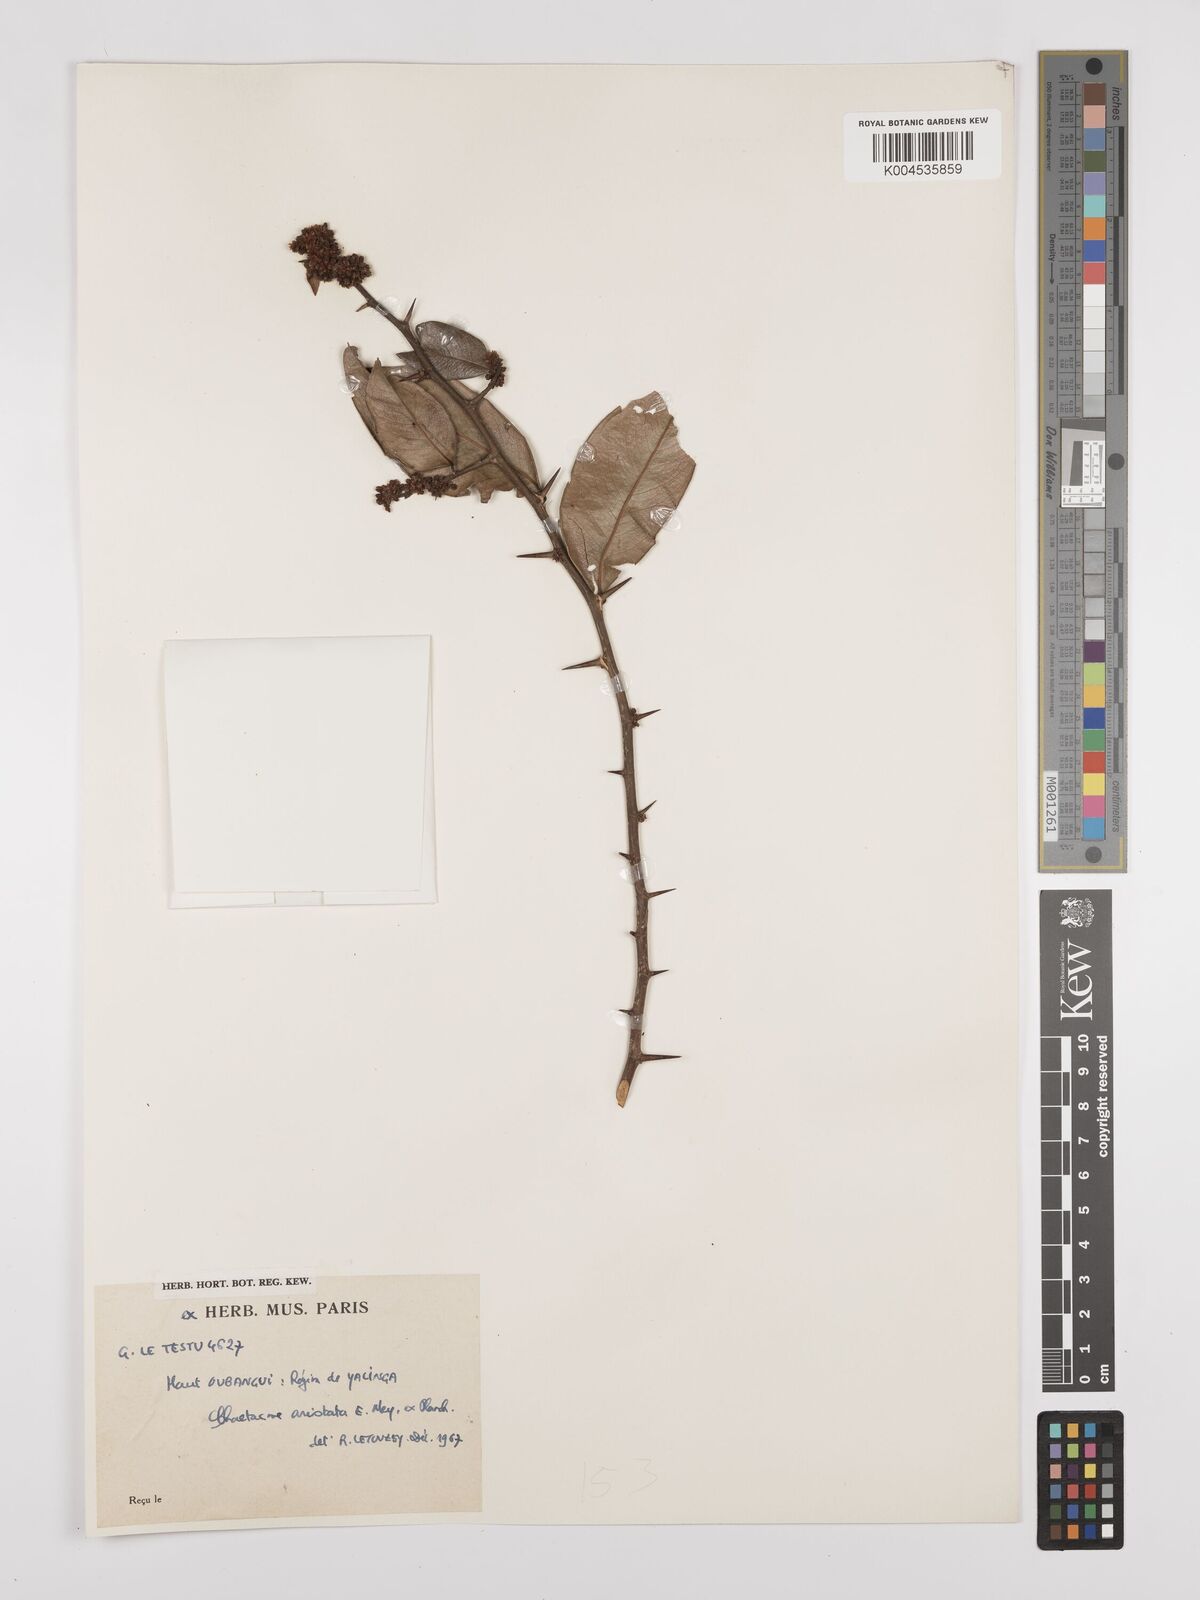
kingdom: Plantae
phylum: Tracheophyta
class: Magnoliopsida
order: Rosales
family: Cannabaceae
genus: Chaetachme
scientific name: Chaetachme aristata
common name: Thorny elm
